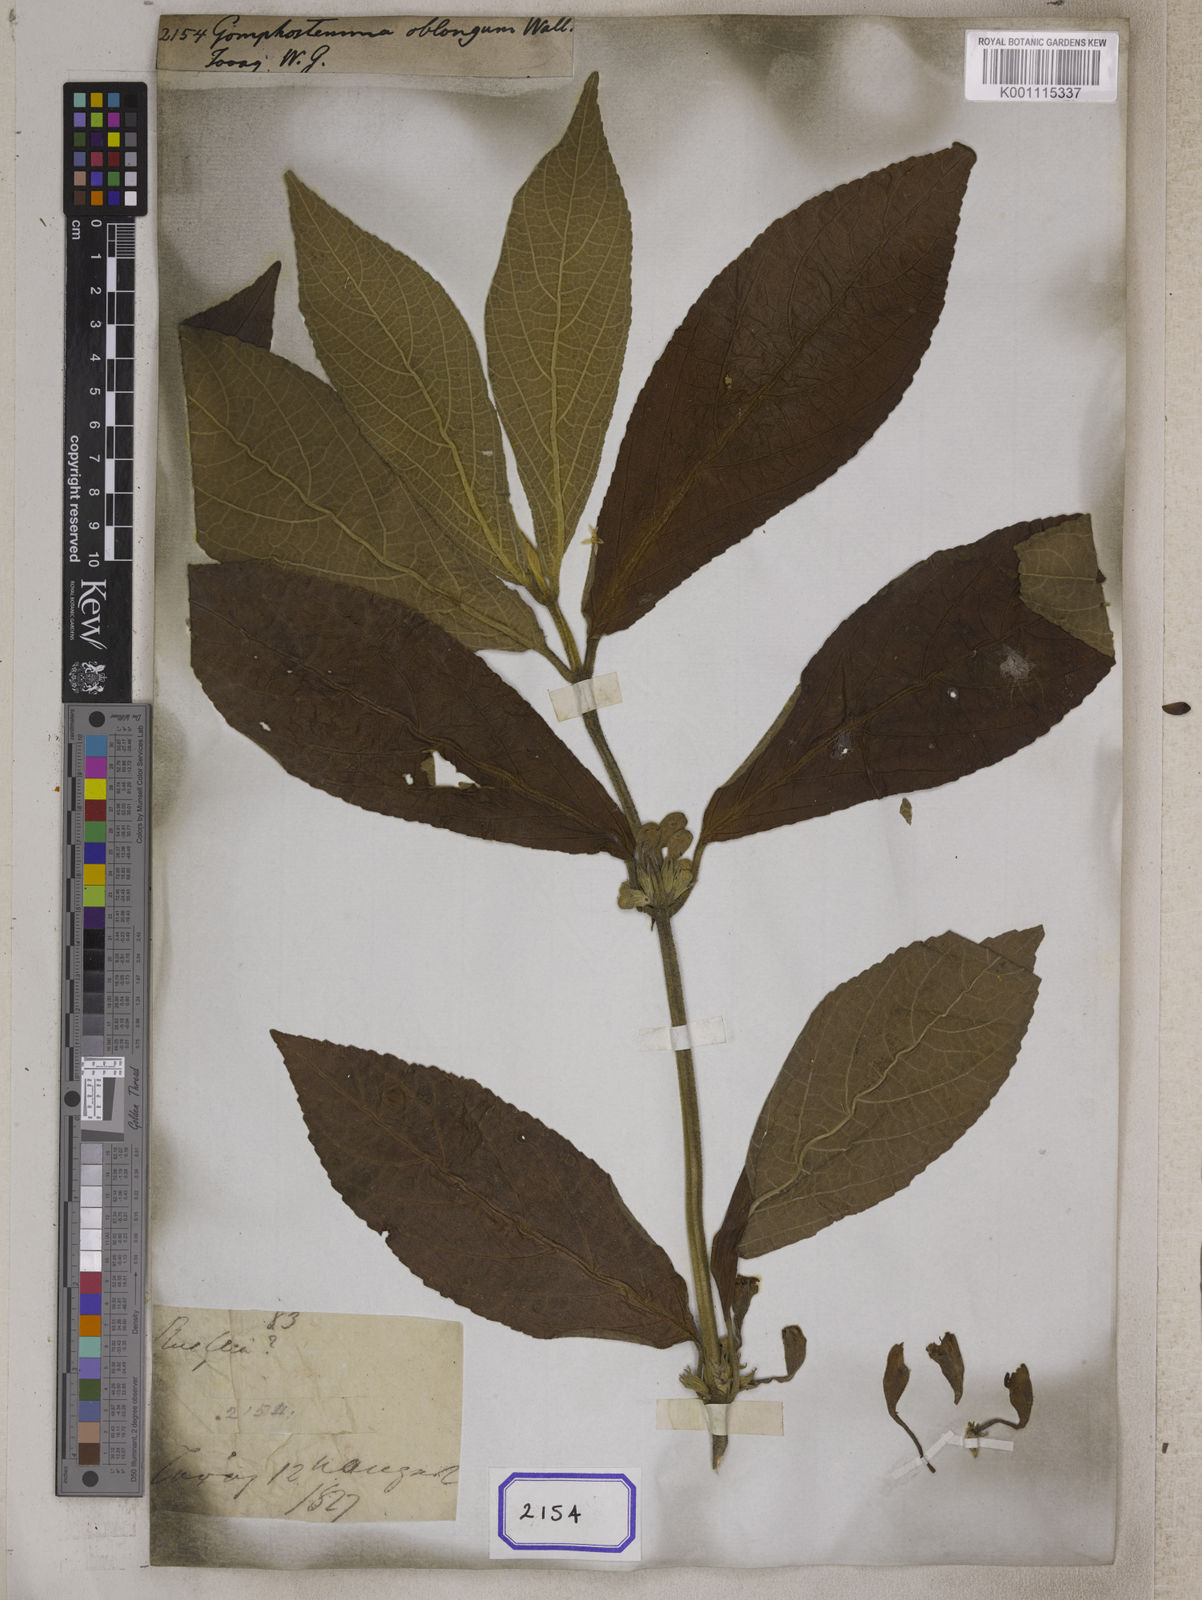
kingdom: Plantae
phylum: Tracheophyta
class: Magnoliopsida
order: Lamiales
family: Lamiaceae
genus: Gomphostemma
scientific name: Gomphostemma
